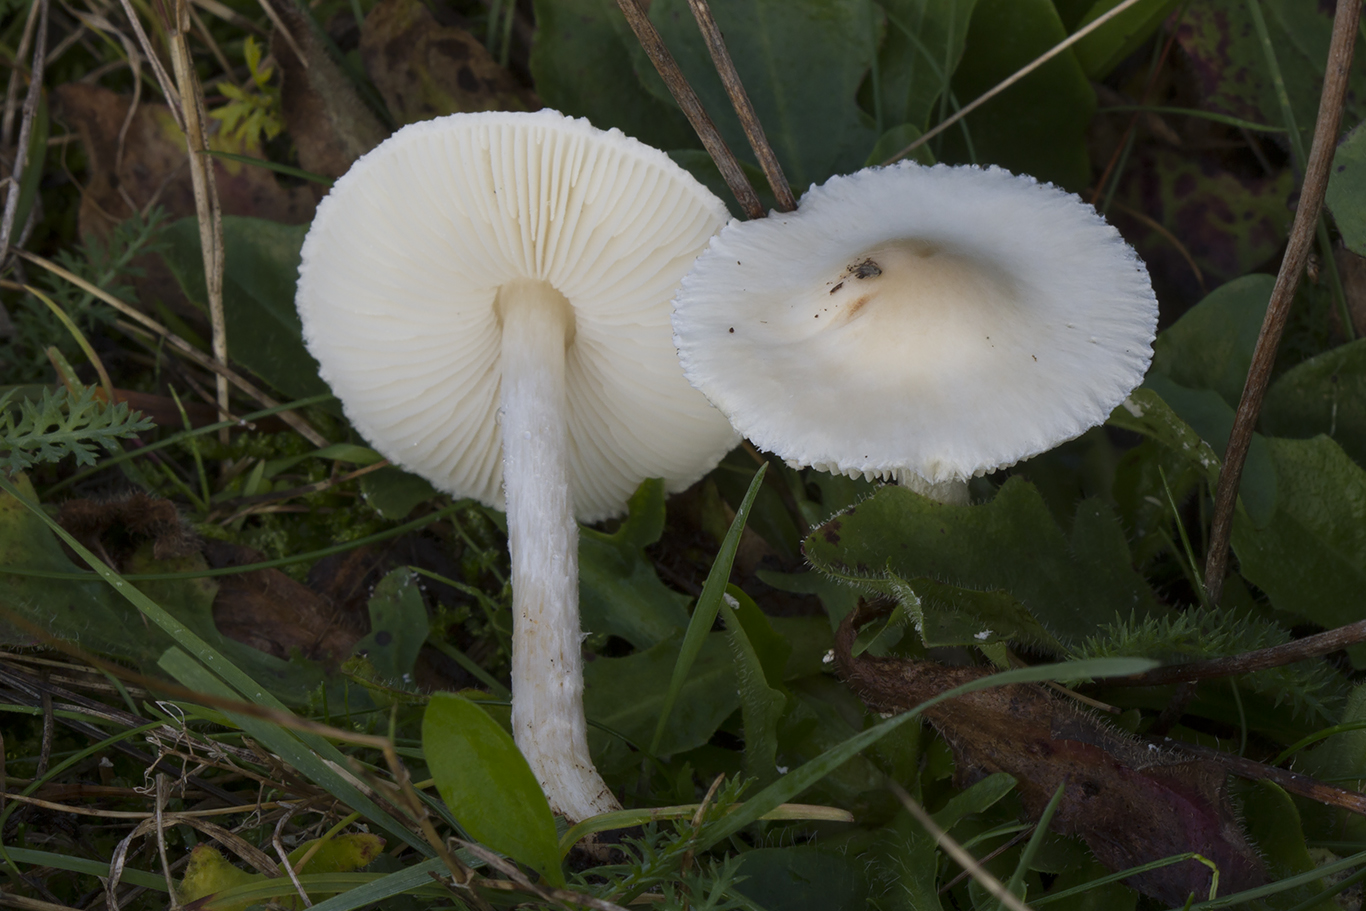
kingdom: Fungi
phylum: Basidiomycota
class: Agaricomycetes
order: Agaricales
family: Agaricaceae
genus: Lepiota
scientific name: Lepiota erminea
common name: hvid parasolhat
